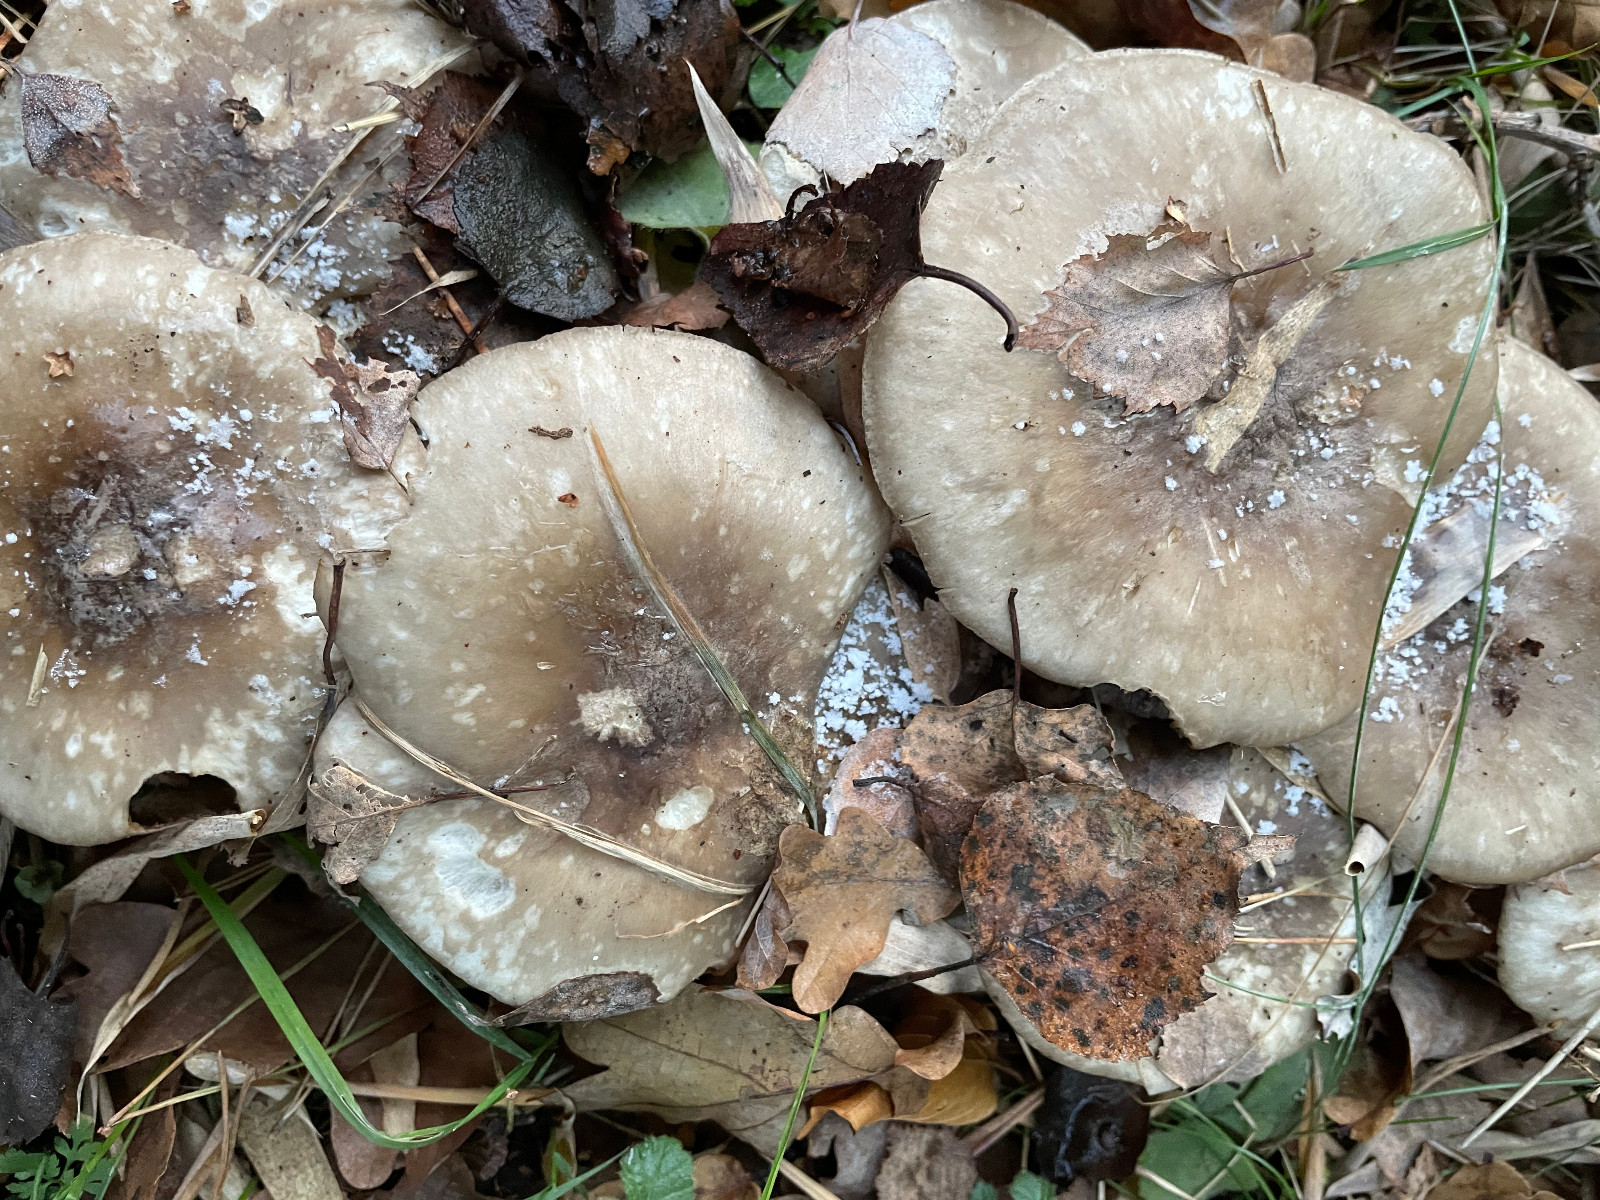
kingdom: Fungi
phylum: Basidiomycota
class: Agaricomycetes
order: Agaricales
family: Tricholomataceae
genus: Clitocybe
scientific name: Clitocybe nebularis
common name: tåge-tragthat
